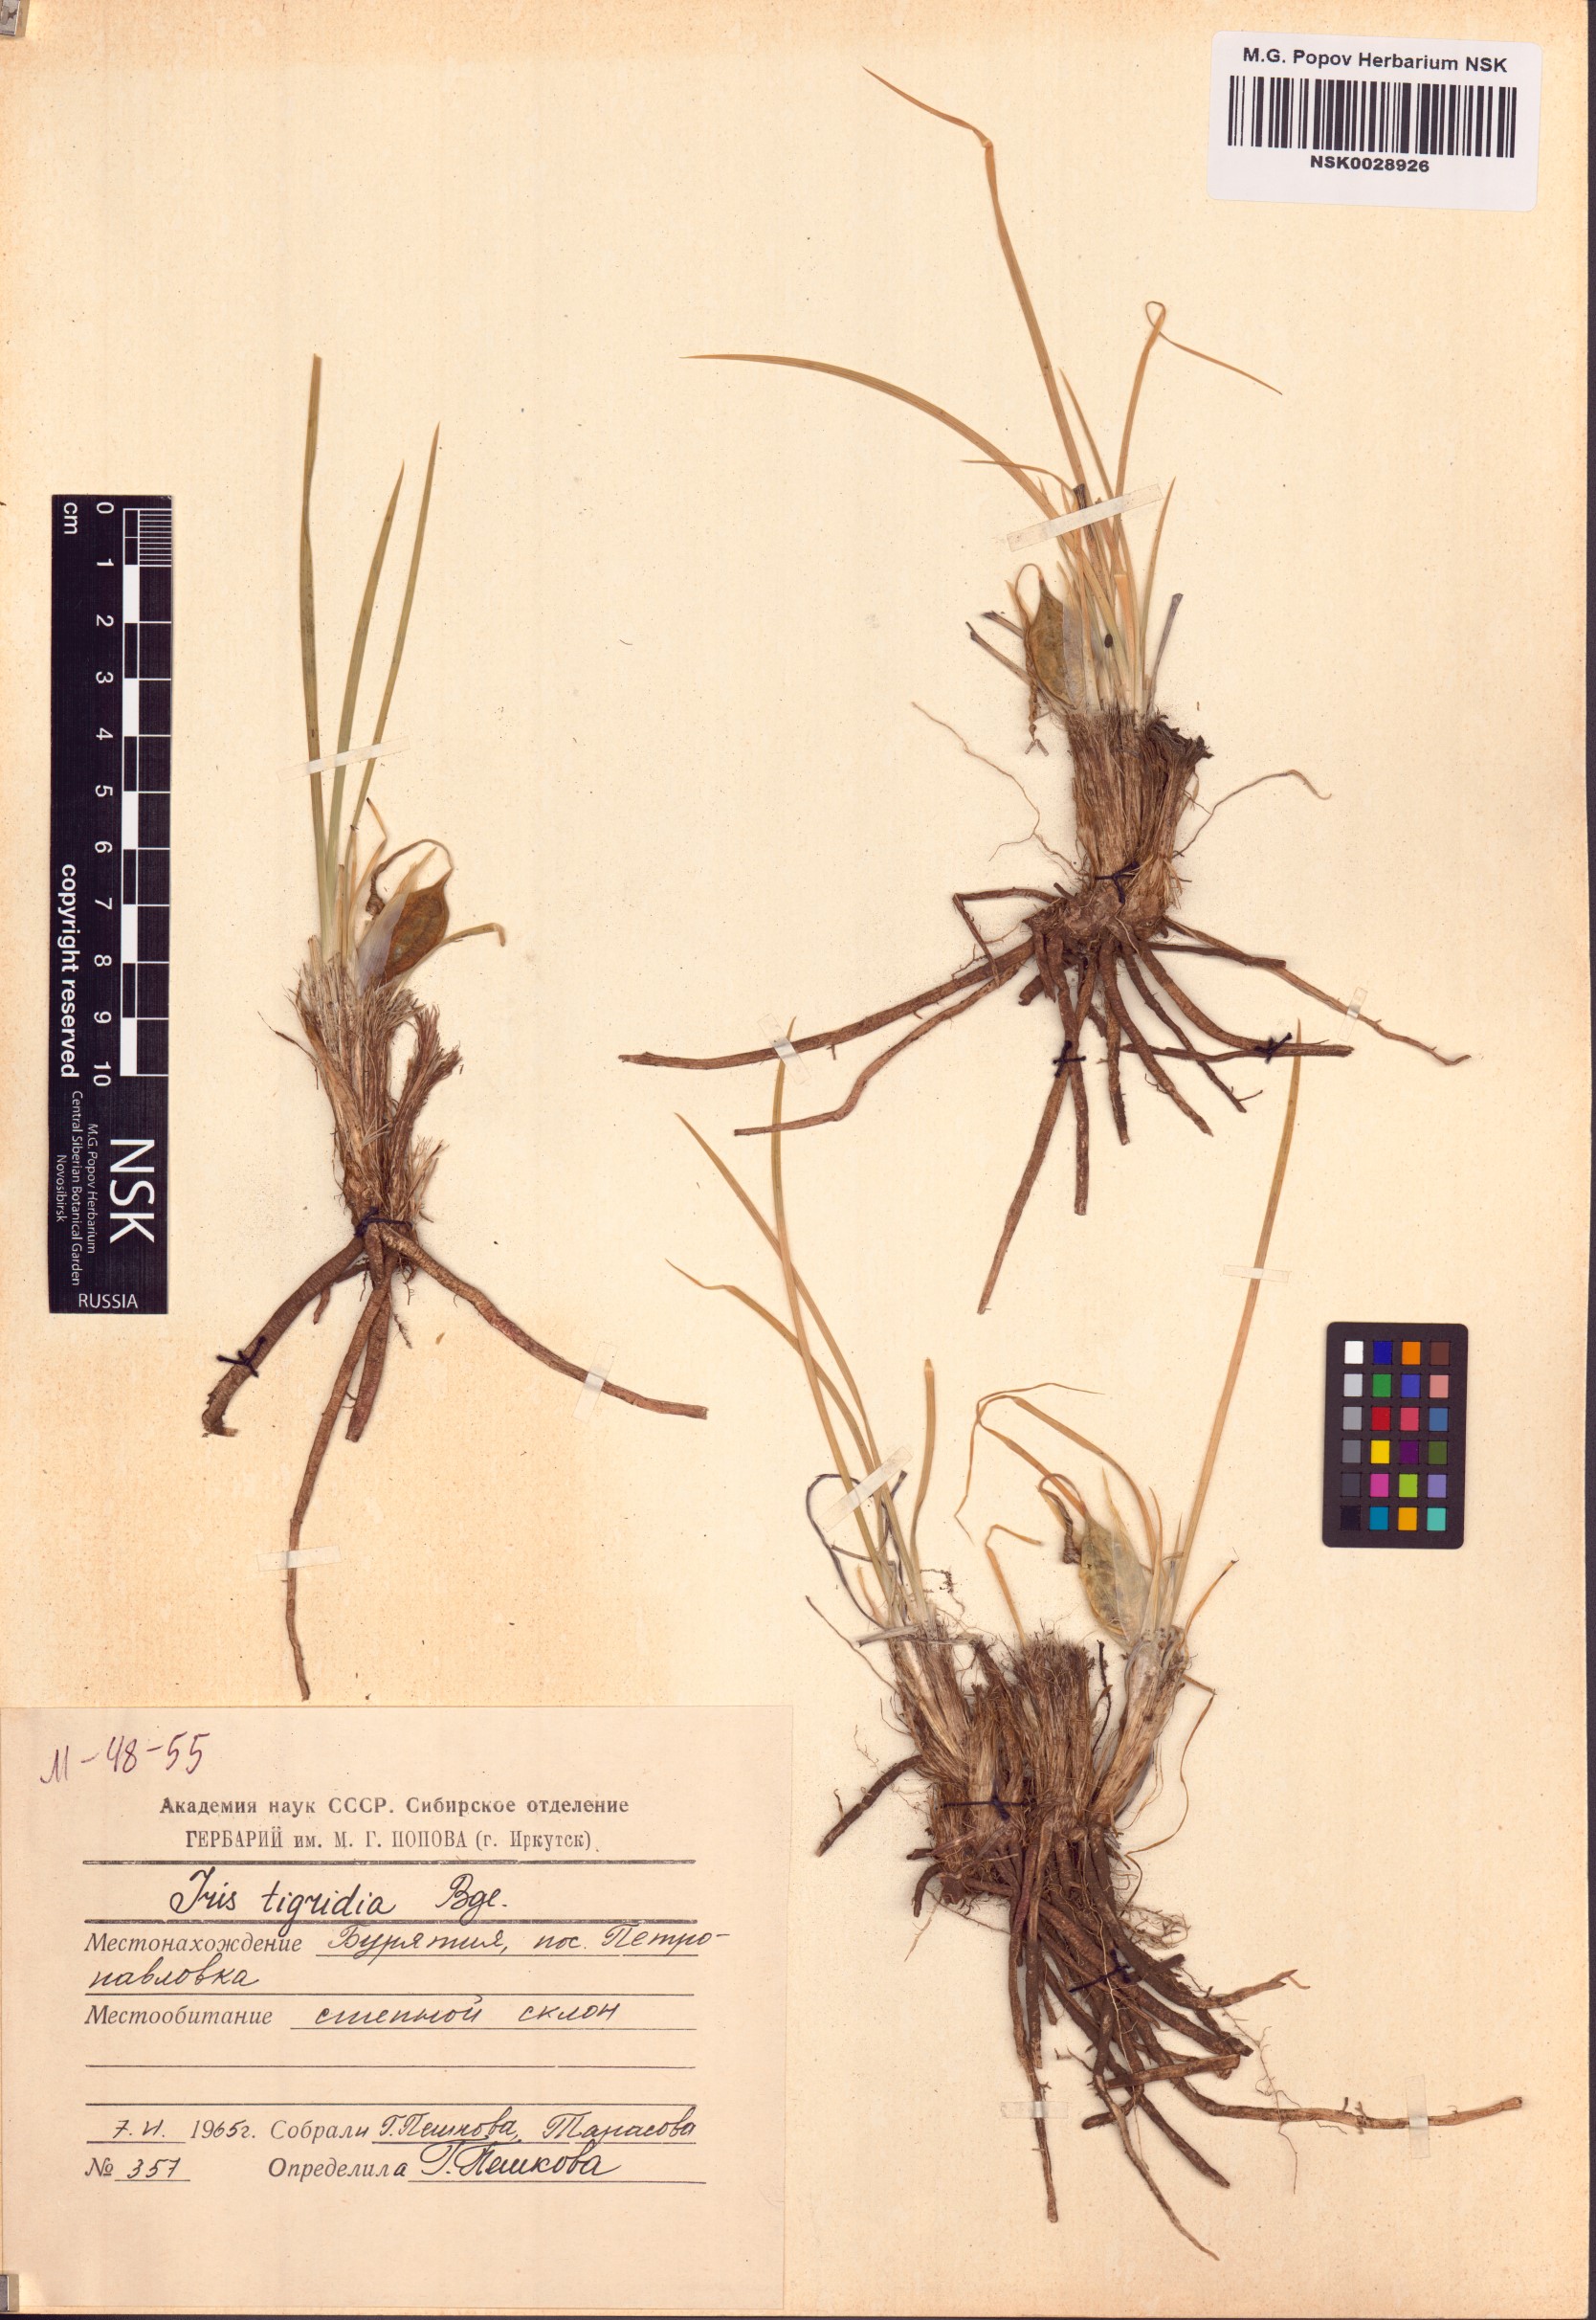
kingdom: Plantae
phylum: Tracheophyta
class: Liliopsida
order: Asparagales
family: Iridaceae
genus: Iris
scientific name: Iris tigridia
